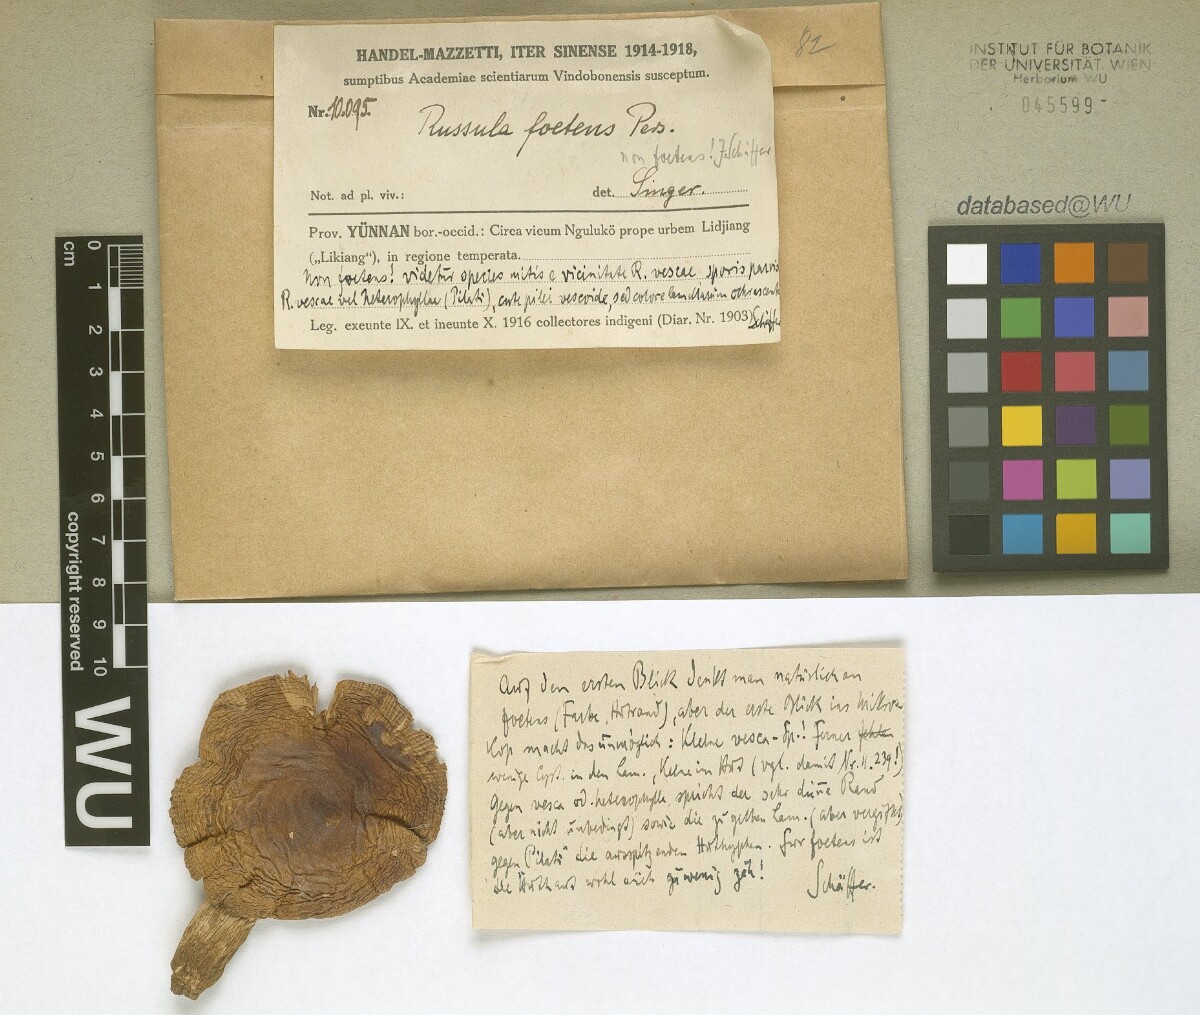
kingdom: Fungi
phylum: Basidiomycota
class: Agaricomycetes
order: Russulales
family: Russulaceae
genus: Russula
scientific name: Russula foetens
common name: Foetid russula
